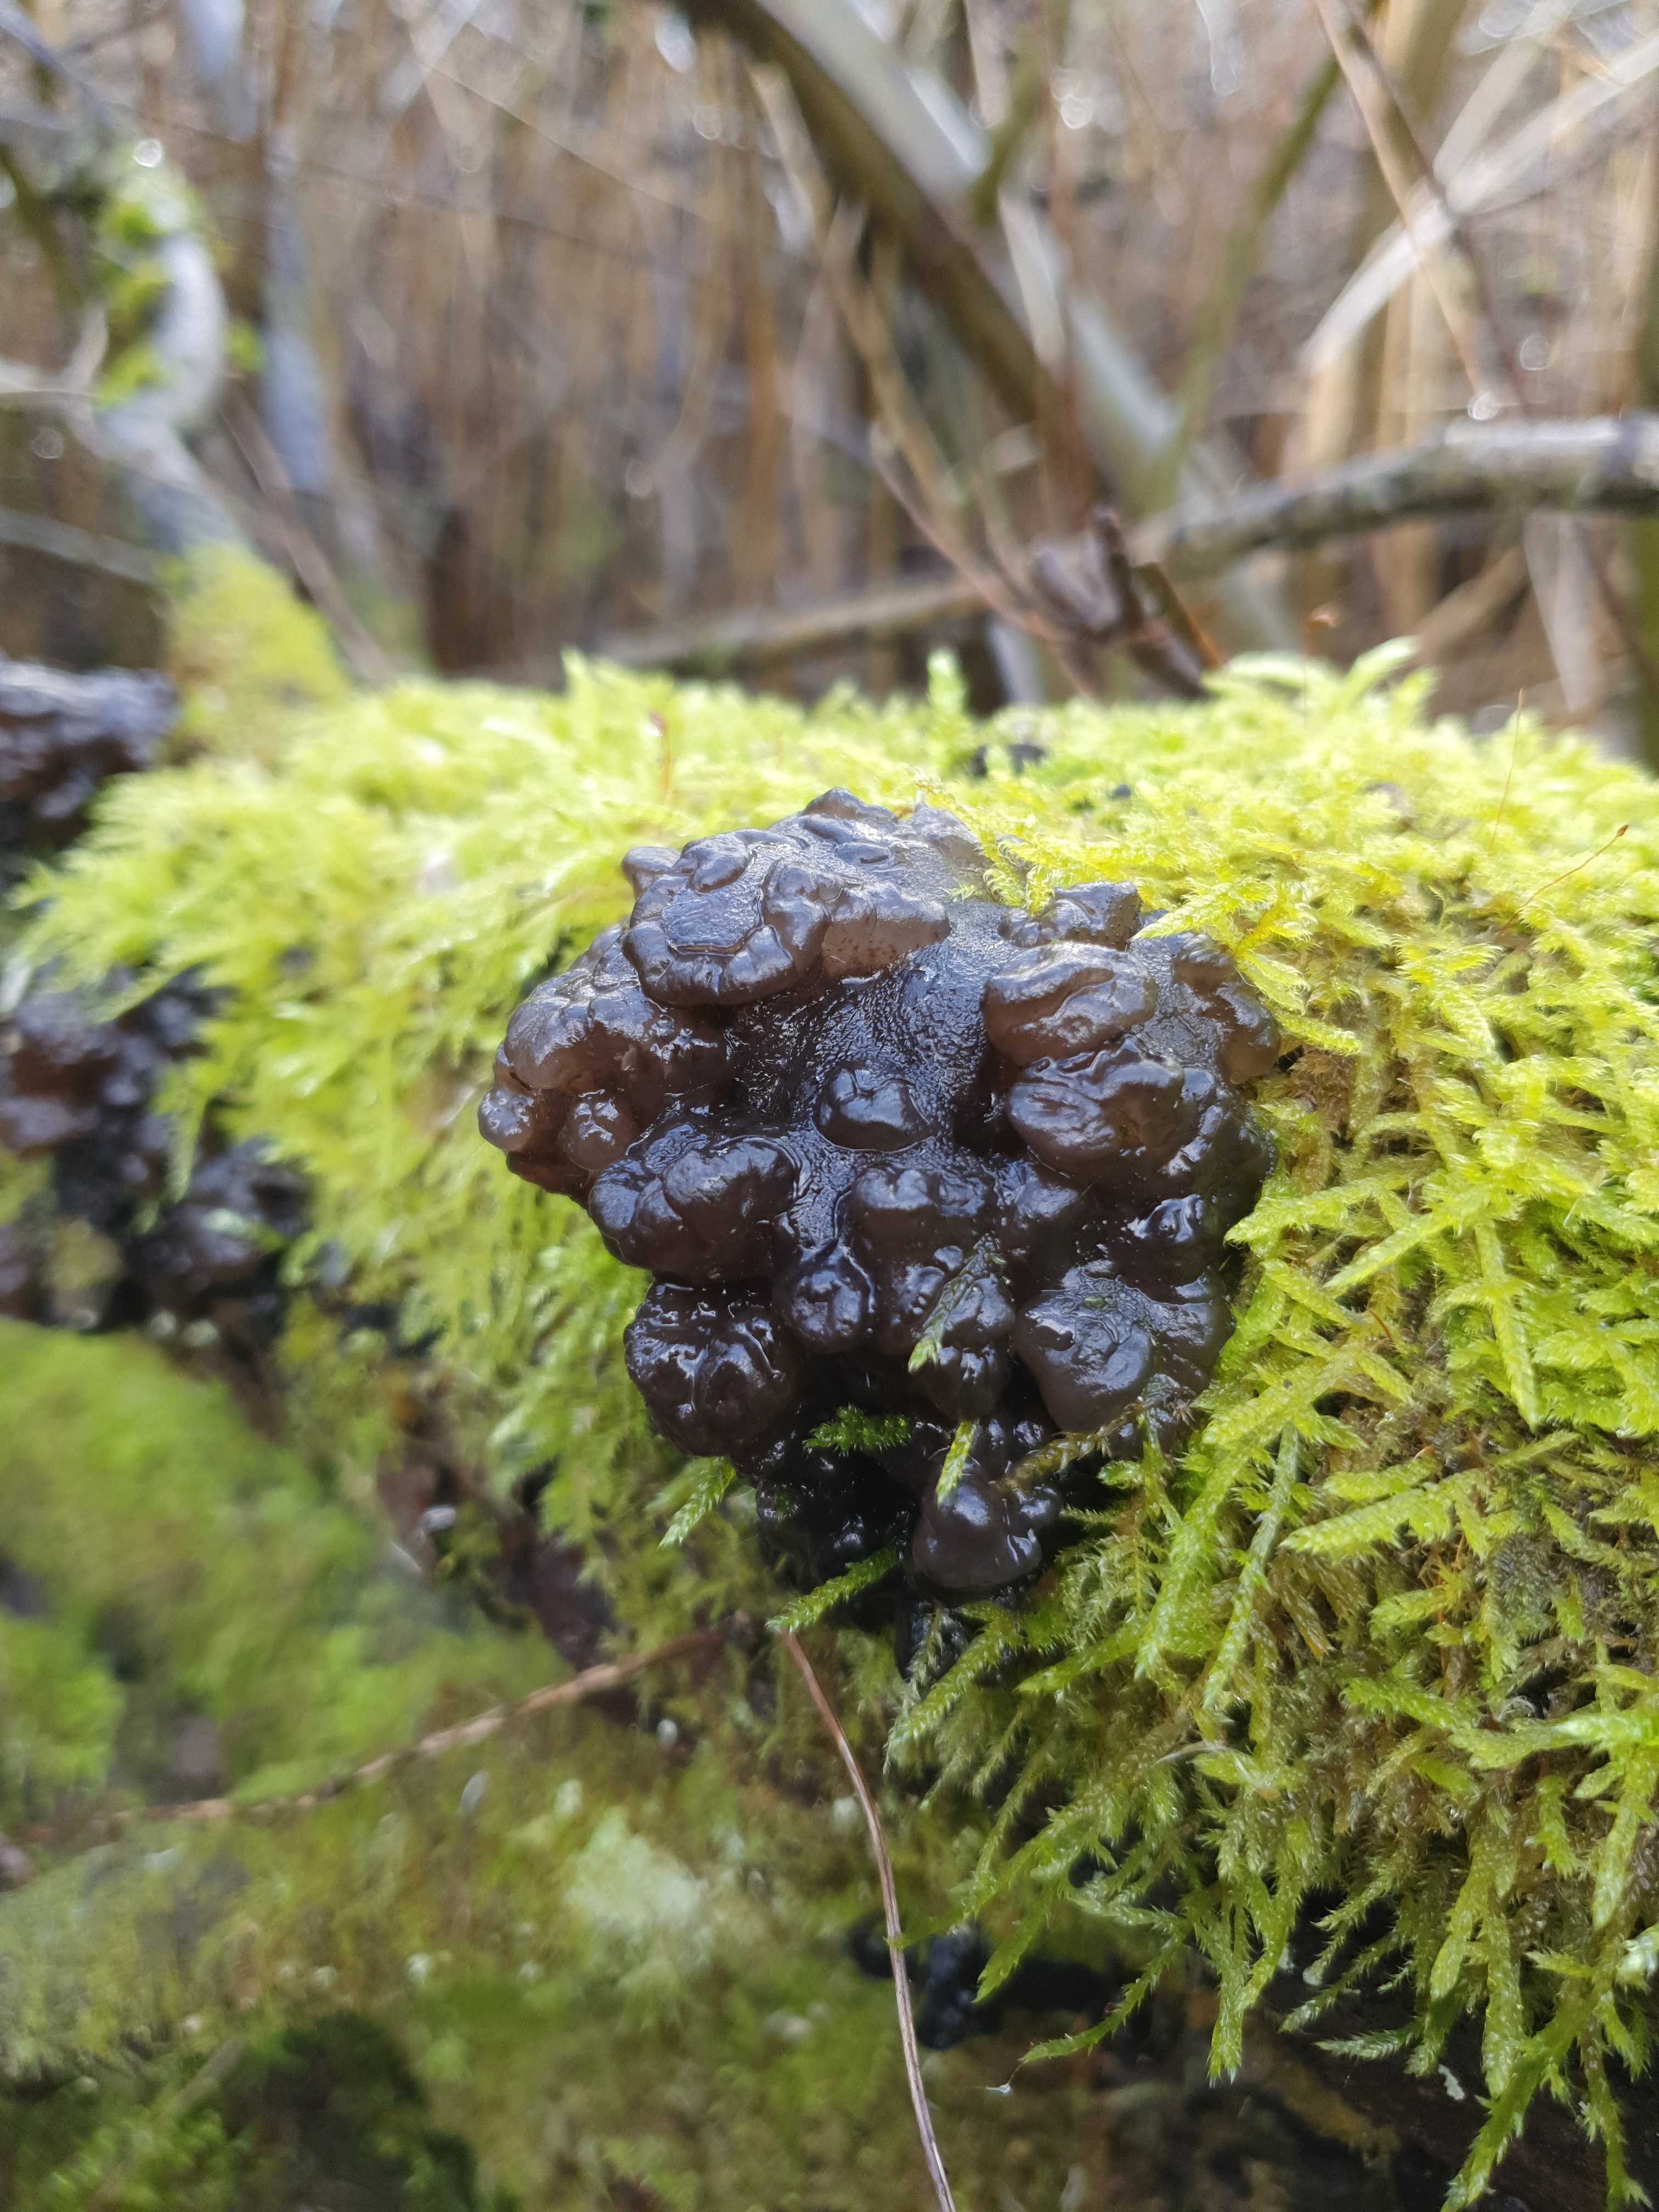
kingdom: Fungi
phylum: Basidiomycota
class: Tremellomycetes
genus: Heteromycophaga
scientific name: Heteromycophaga glandulosae
